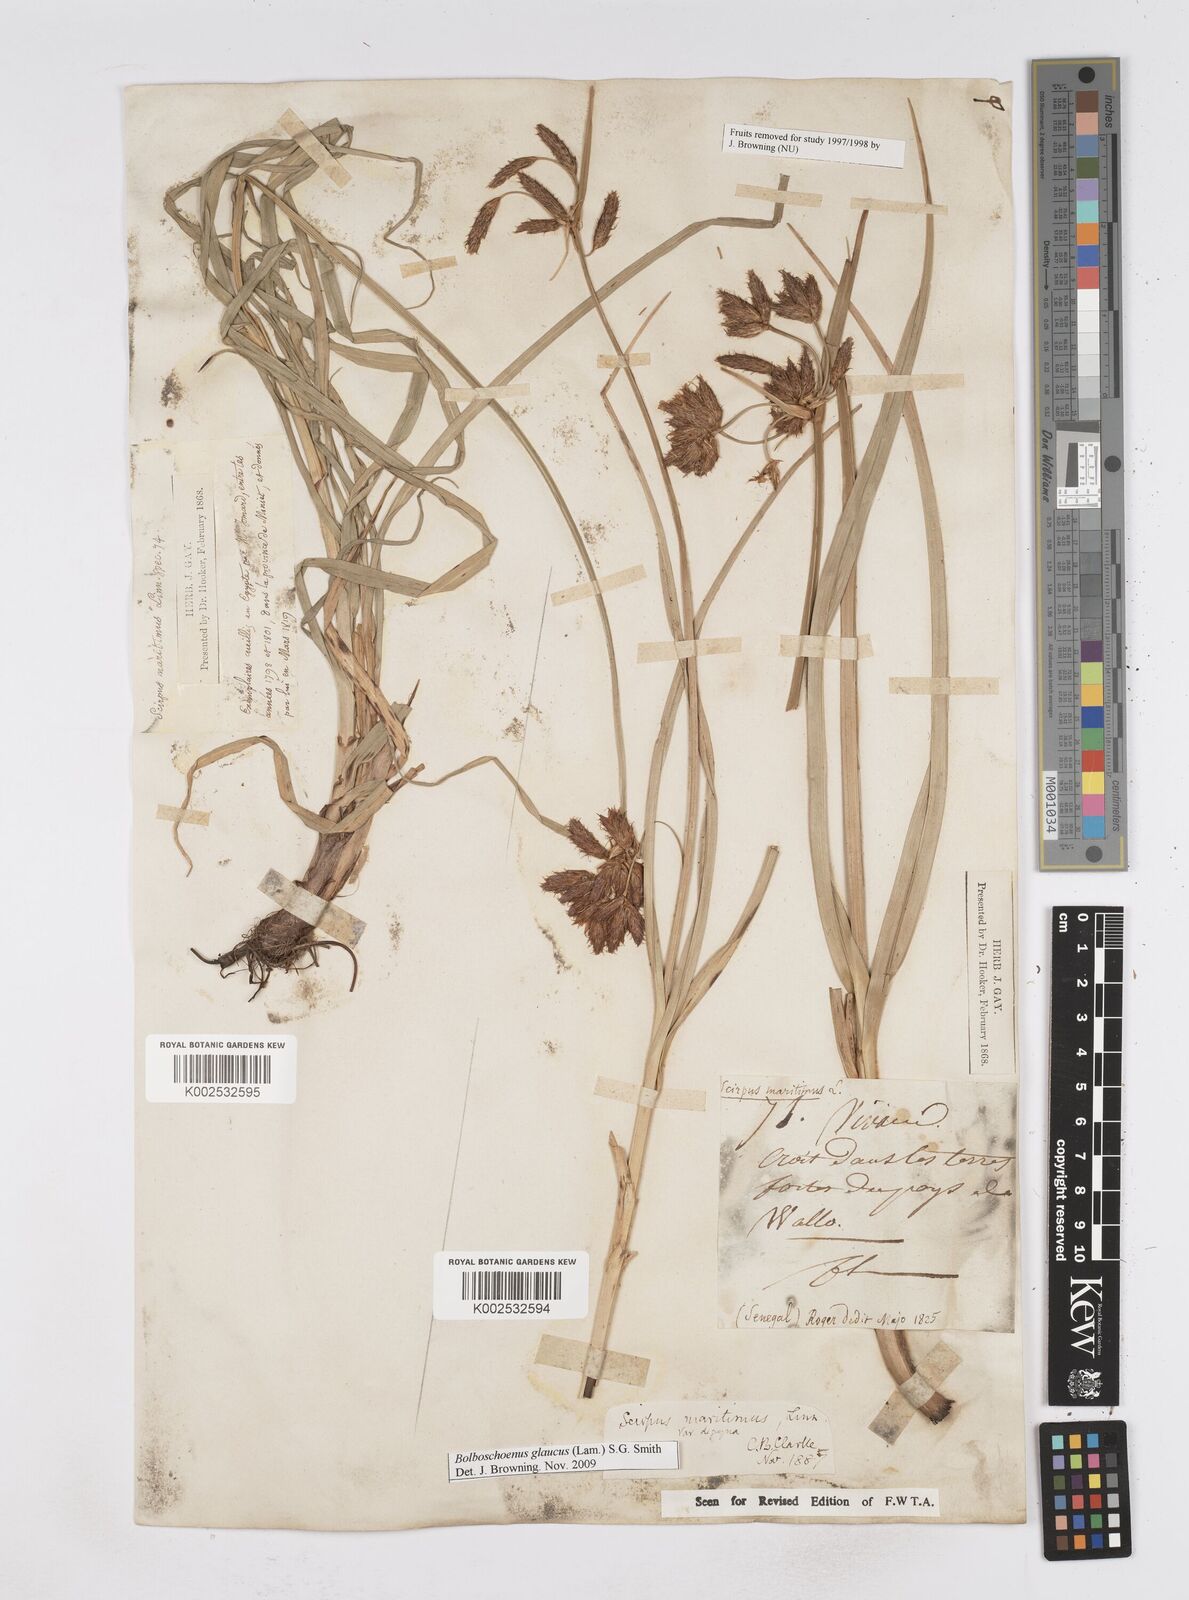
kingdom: Plantae
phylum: Tracheophyta
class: Liliopsida
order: Poales
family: Cyperaceae
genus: Bolboschoenus
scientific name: Bolboschoenus glaucus
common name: Tuberous bulrush
